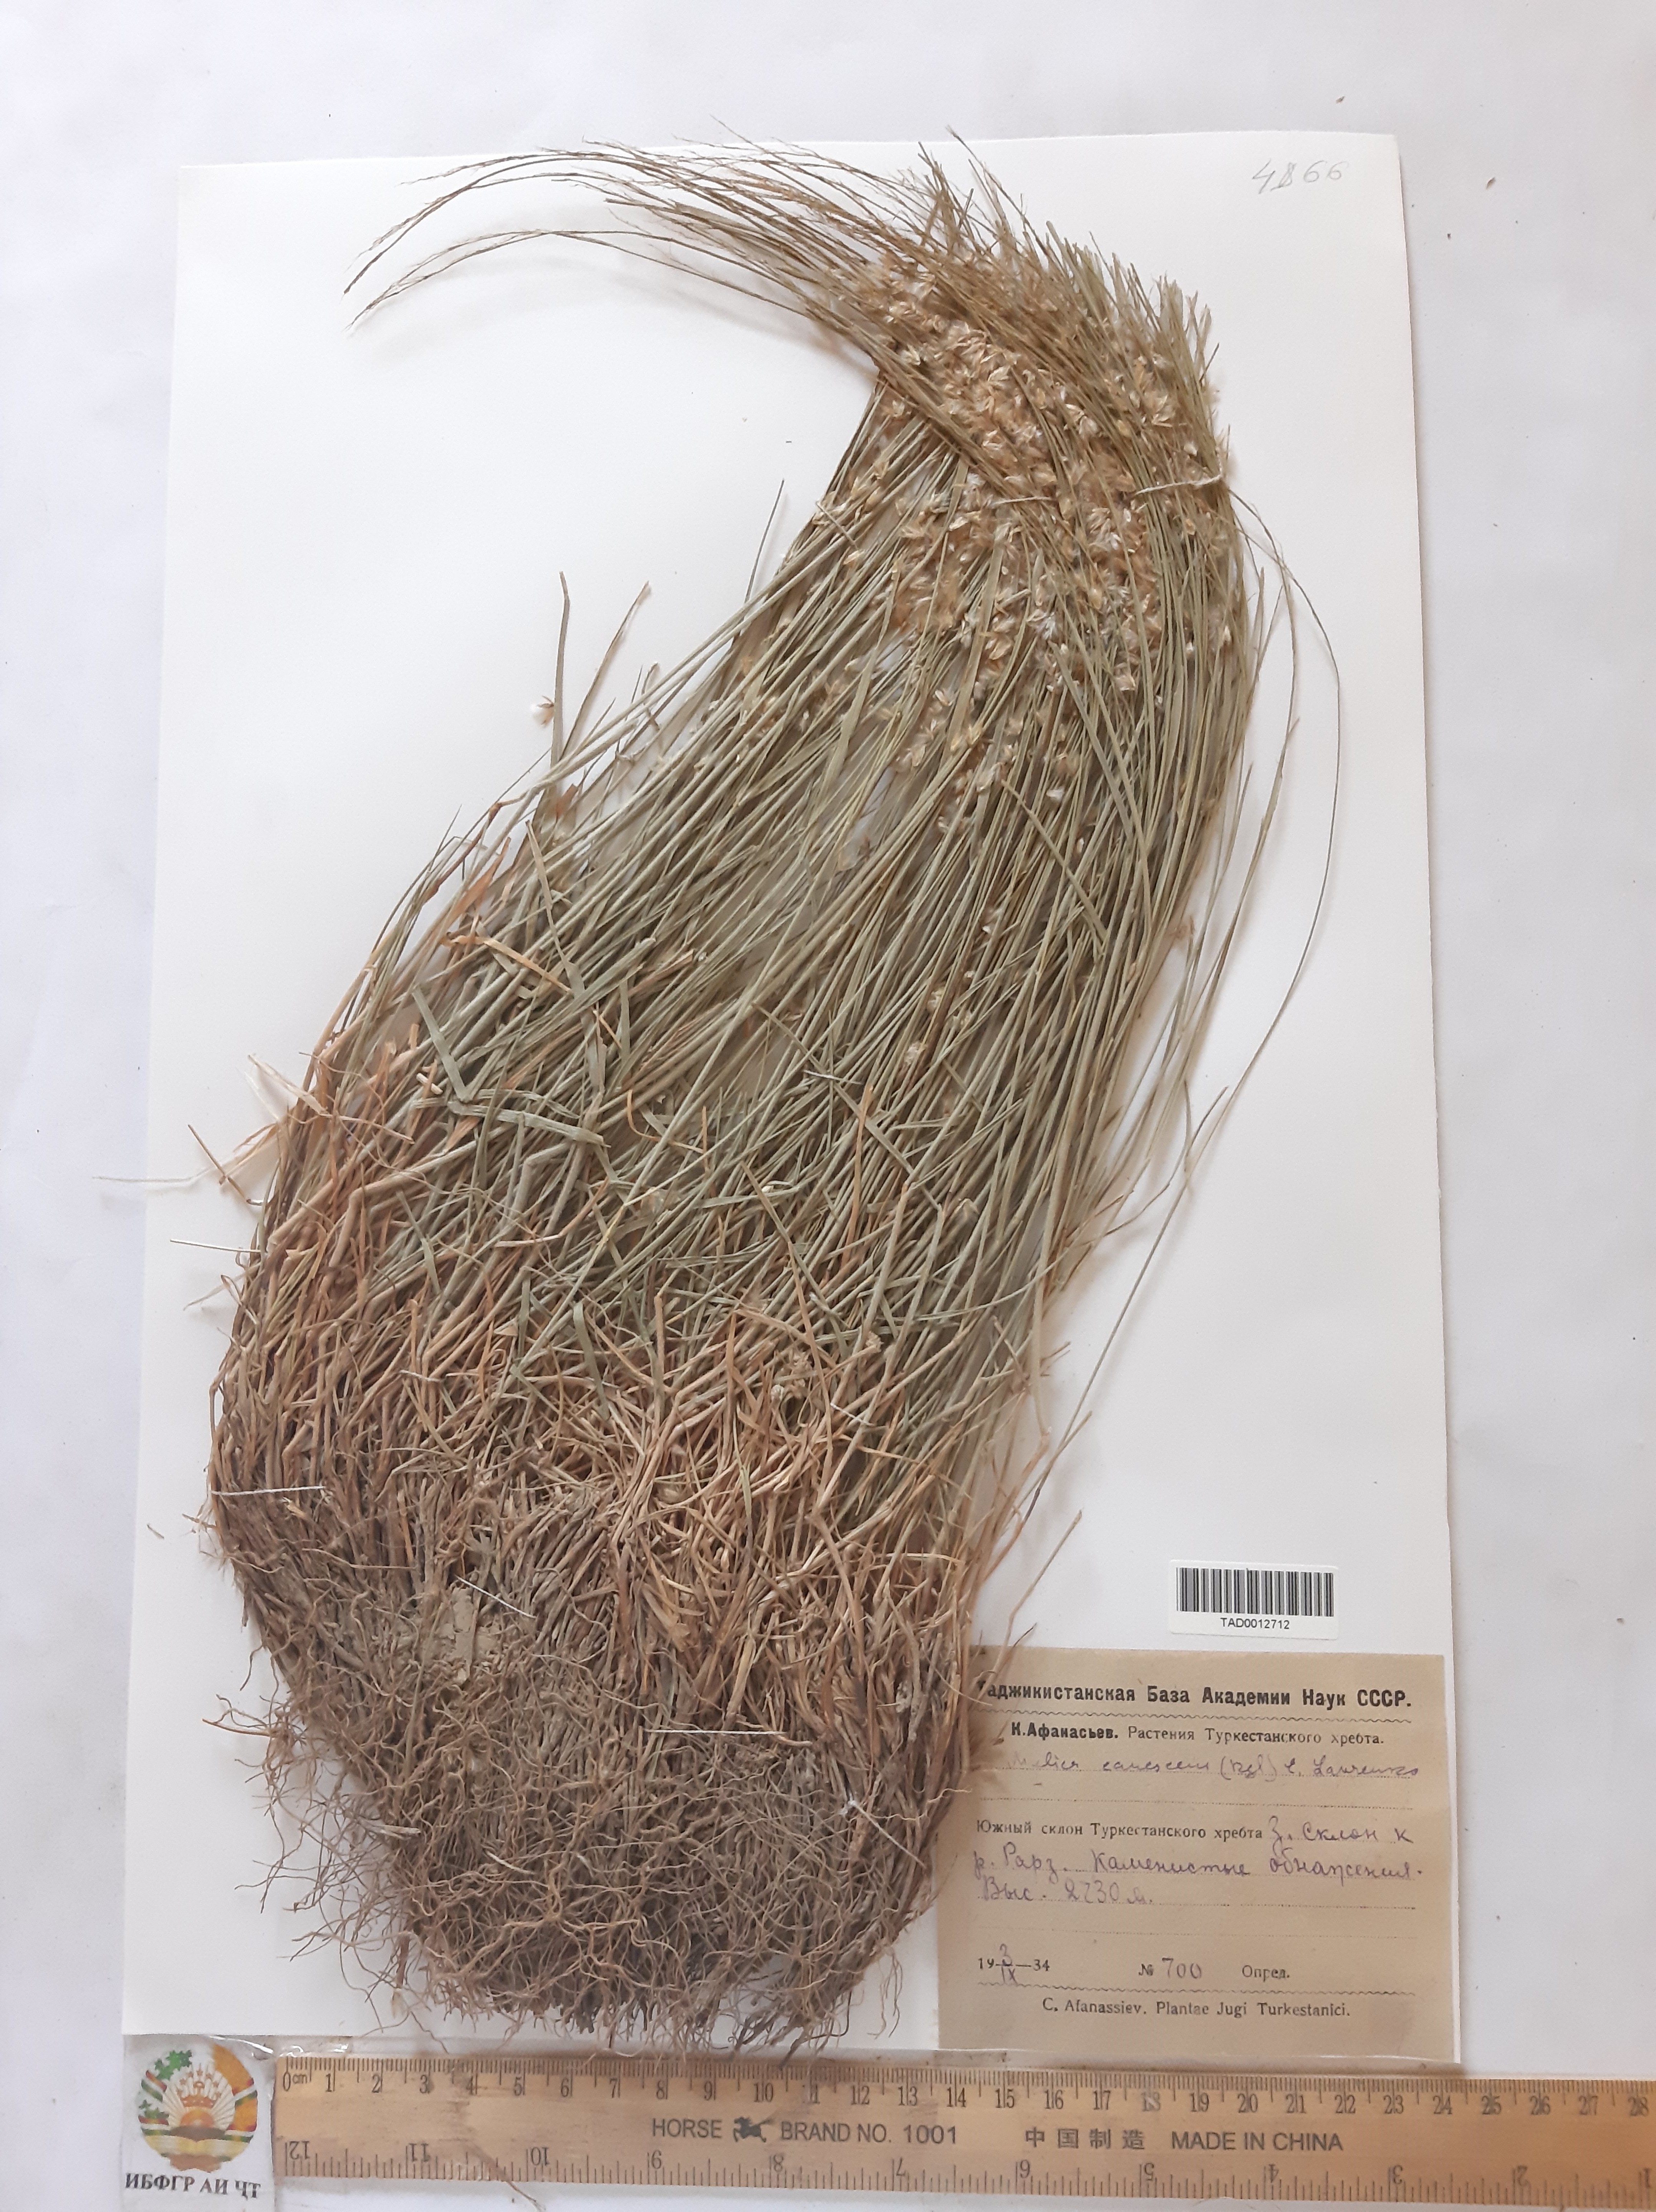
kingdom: Plantae
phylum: Tracheophyta
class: Liliopsida
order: Poales
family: Poaceae
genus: Melica
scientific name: Melica persica
